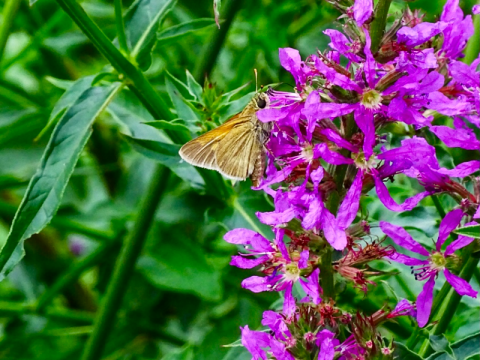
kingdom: Animalia
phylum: Arthropoda
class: Insecta
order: Lepidoptera
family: Hesperiidae
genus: Polites
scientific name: Polites themistocles
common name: Tawny-edged Skipper
